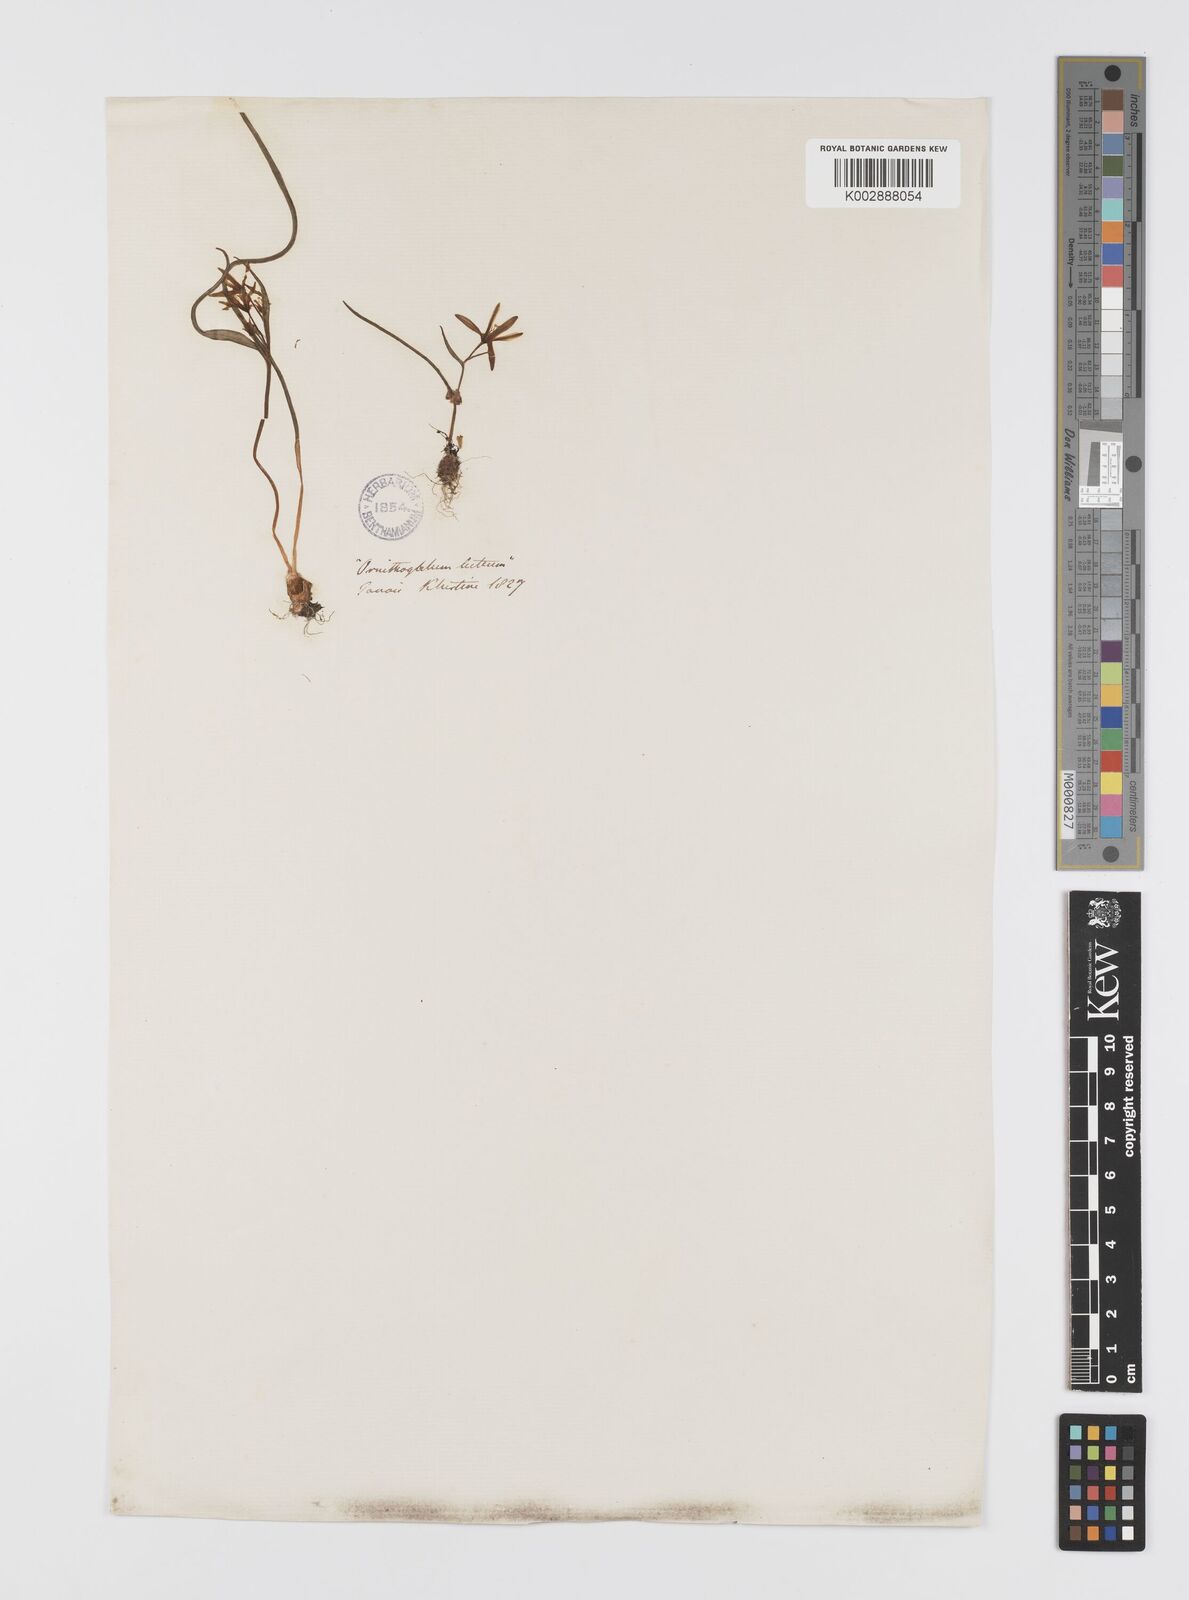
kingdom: Plantae
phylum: Tracheophyta
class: Liliopsida
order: Liliales
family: Liliaceae
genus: Gagea
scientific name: Gagea pusilla
